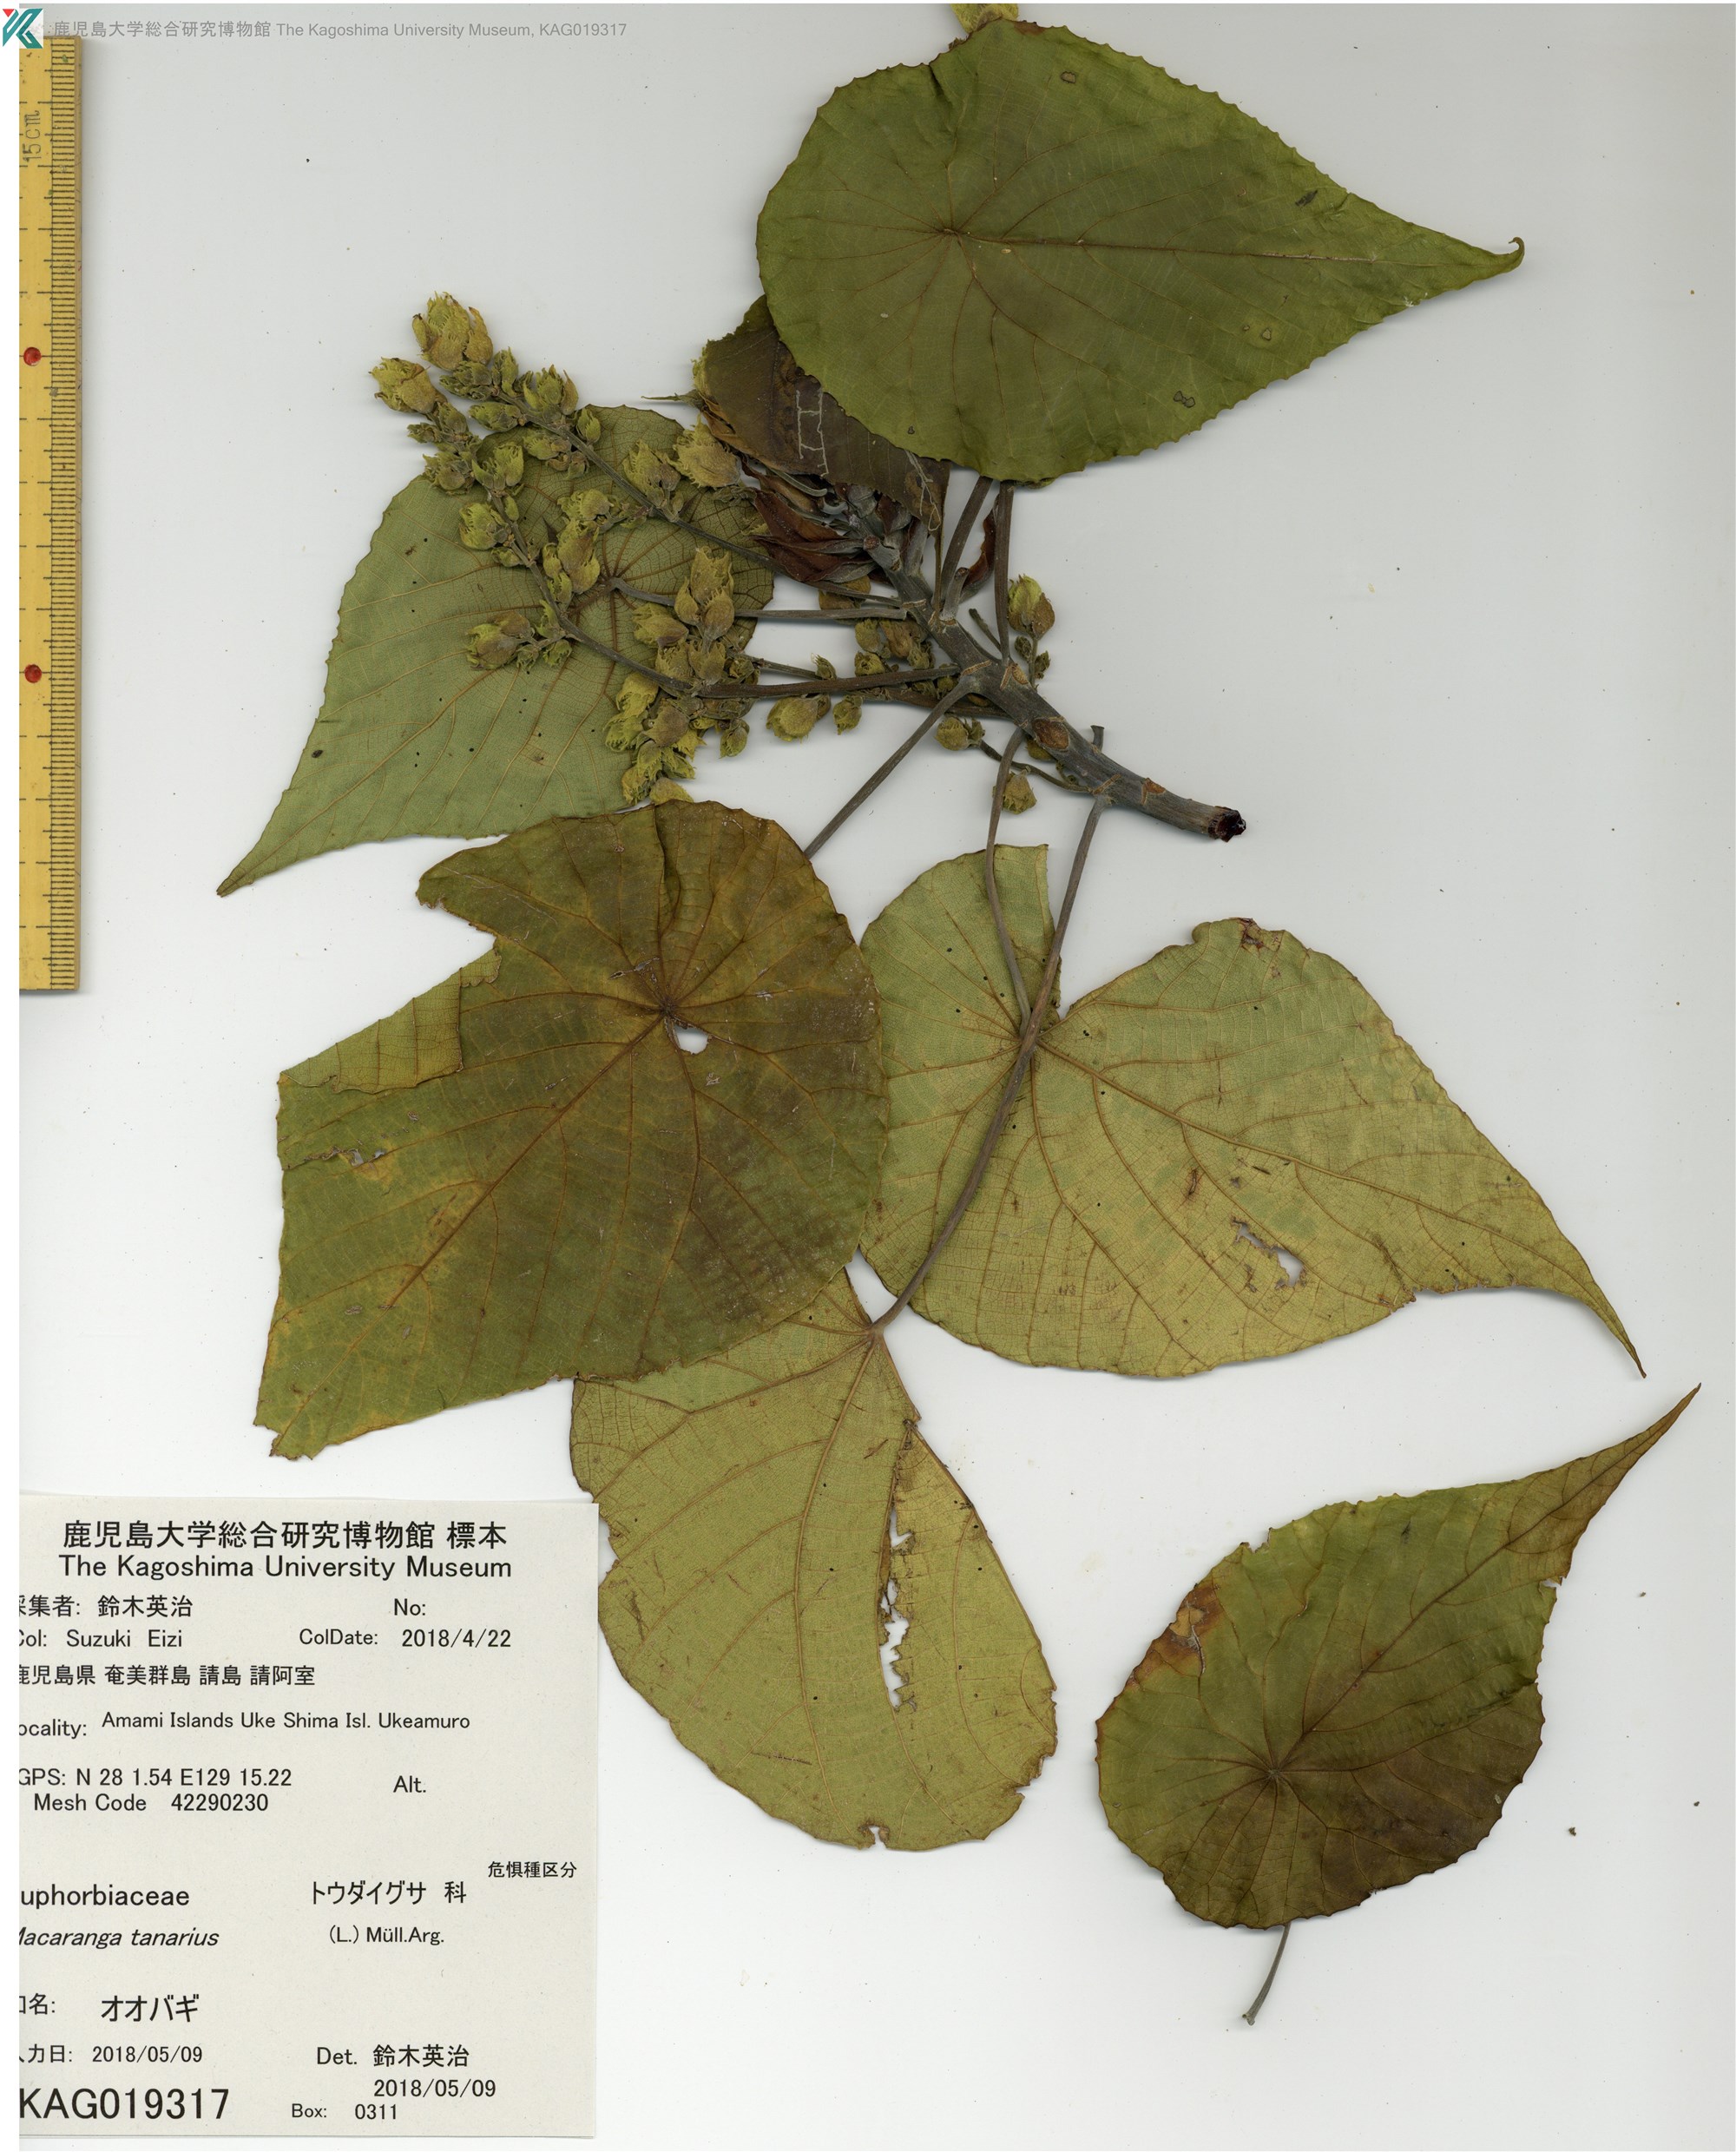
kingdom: Plantae
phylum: Tracheophyta
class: Magnoliopsida
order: Malpighiales
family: Euphorbiaceae
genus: Macaranga
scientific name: Macaranga tanarius
